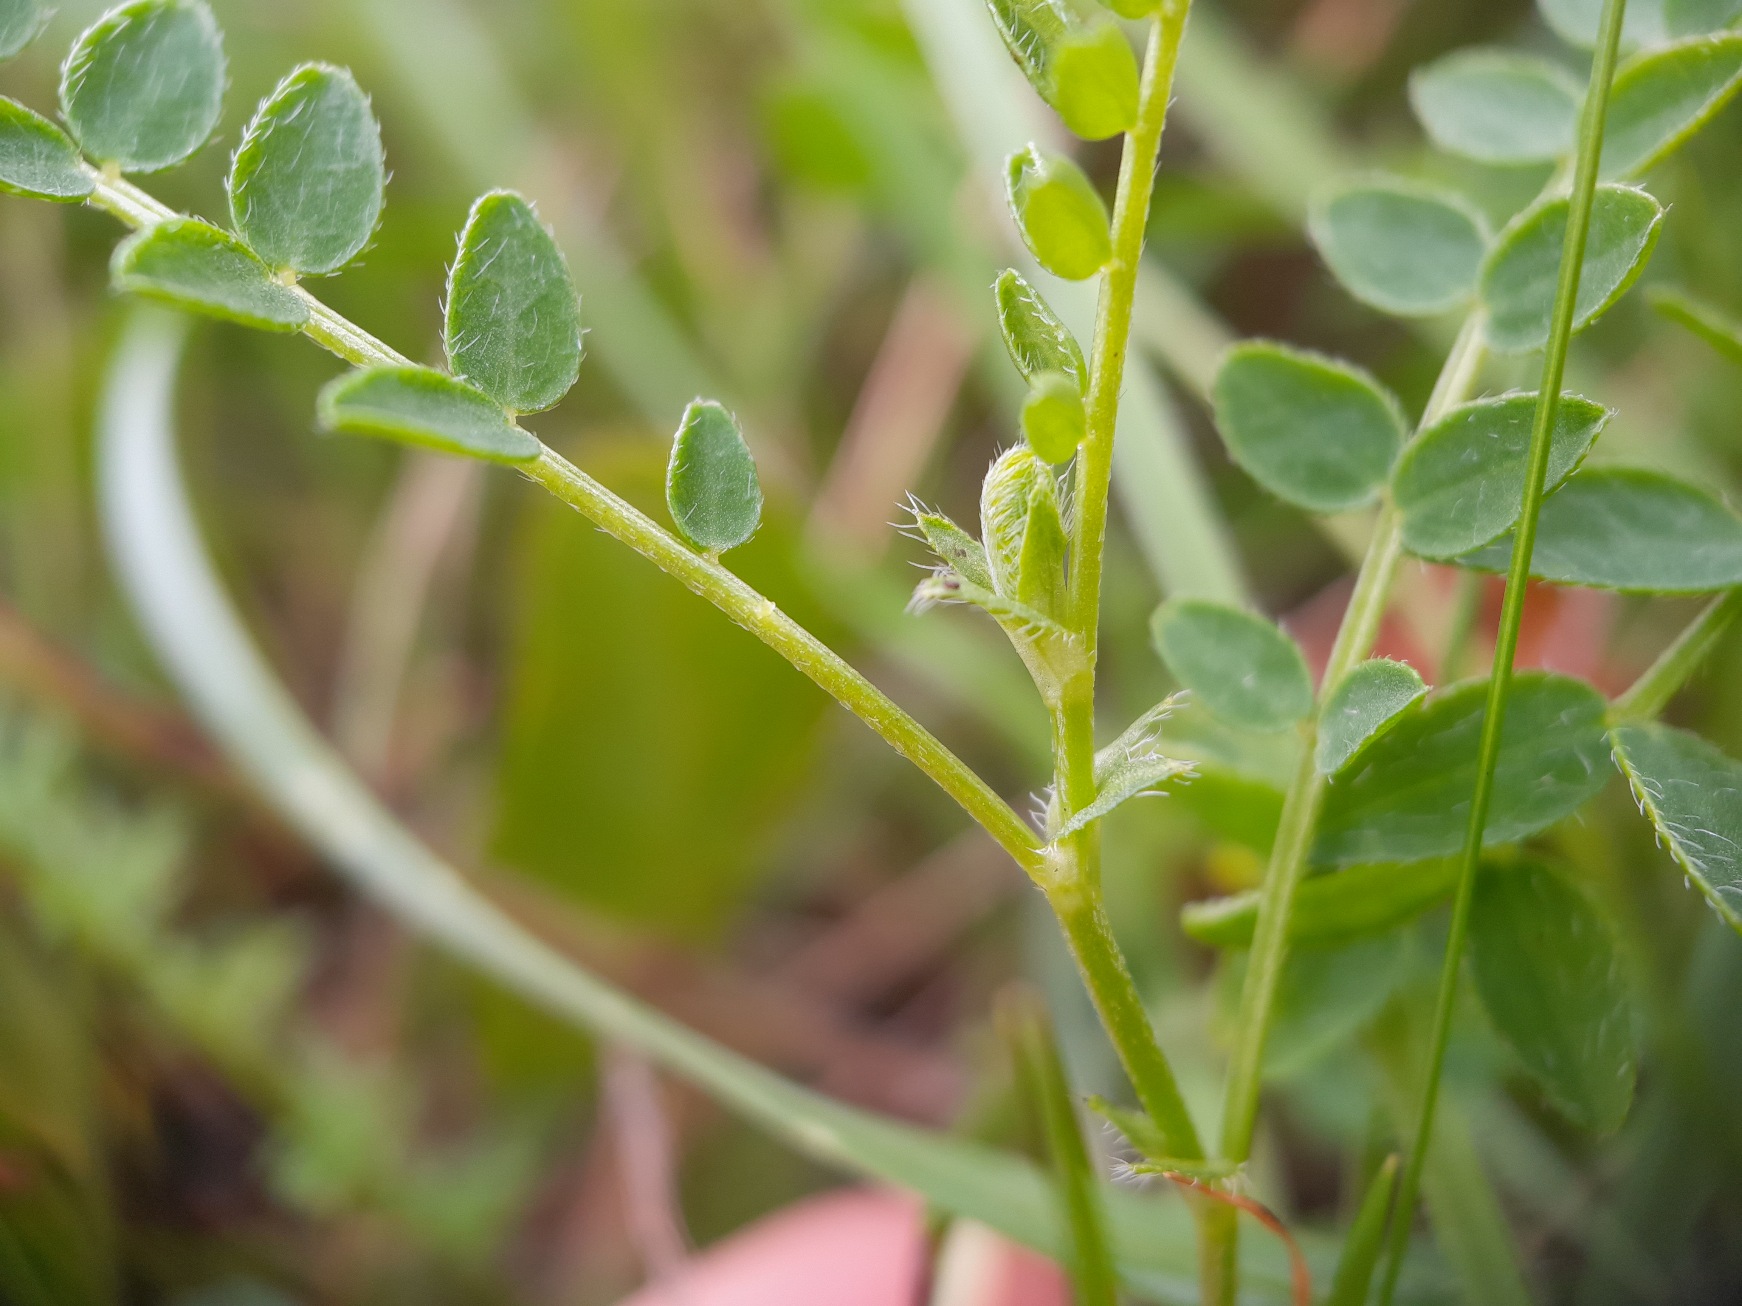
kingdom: Plantae
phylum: Tracheophyta
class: Magnoliopsida
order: Fabales
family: Fabaceae
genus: Astragalus
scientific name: Astragalus danicus
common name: Dansk astragel
